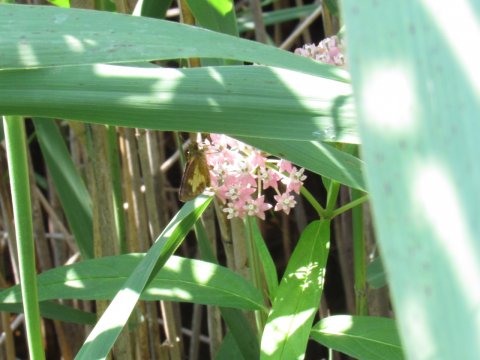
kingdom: Animalia
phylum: Arthropoda
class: Insecta
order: Lepidoptera
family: Hesperiidae
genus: Poanes
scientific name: Poanes massasoit
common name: Mulberry Wing
